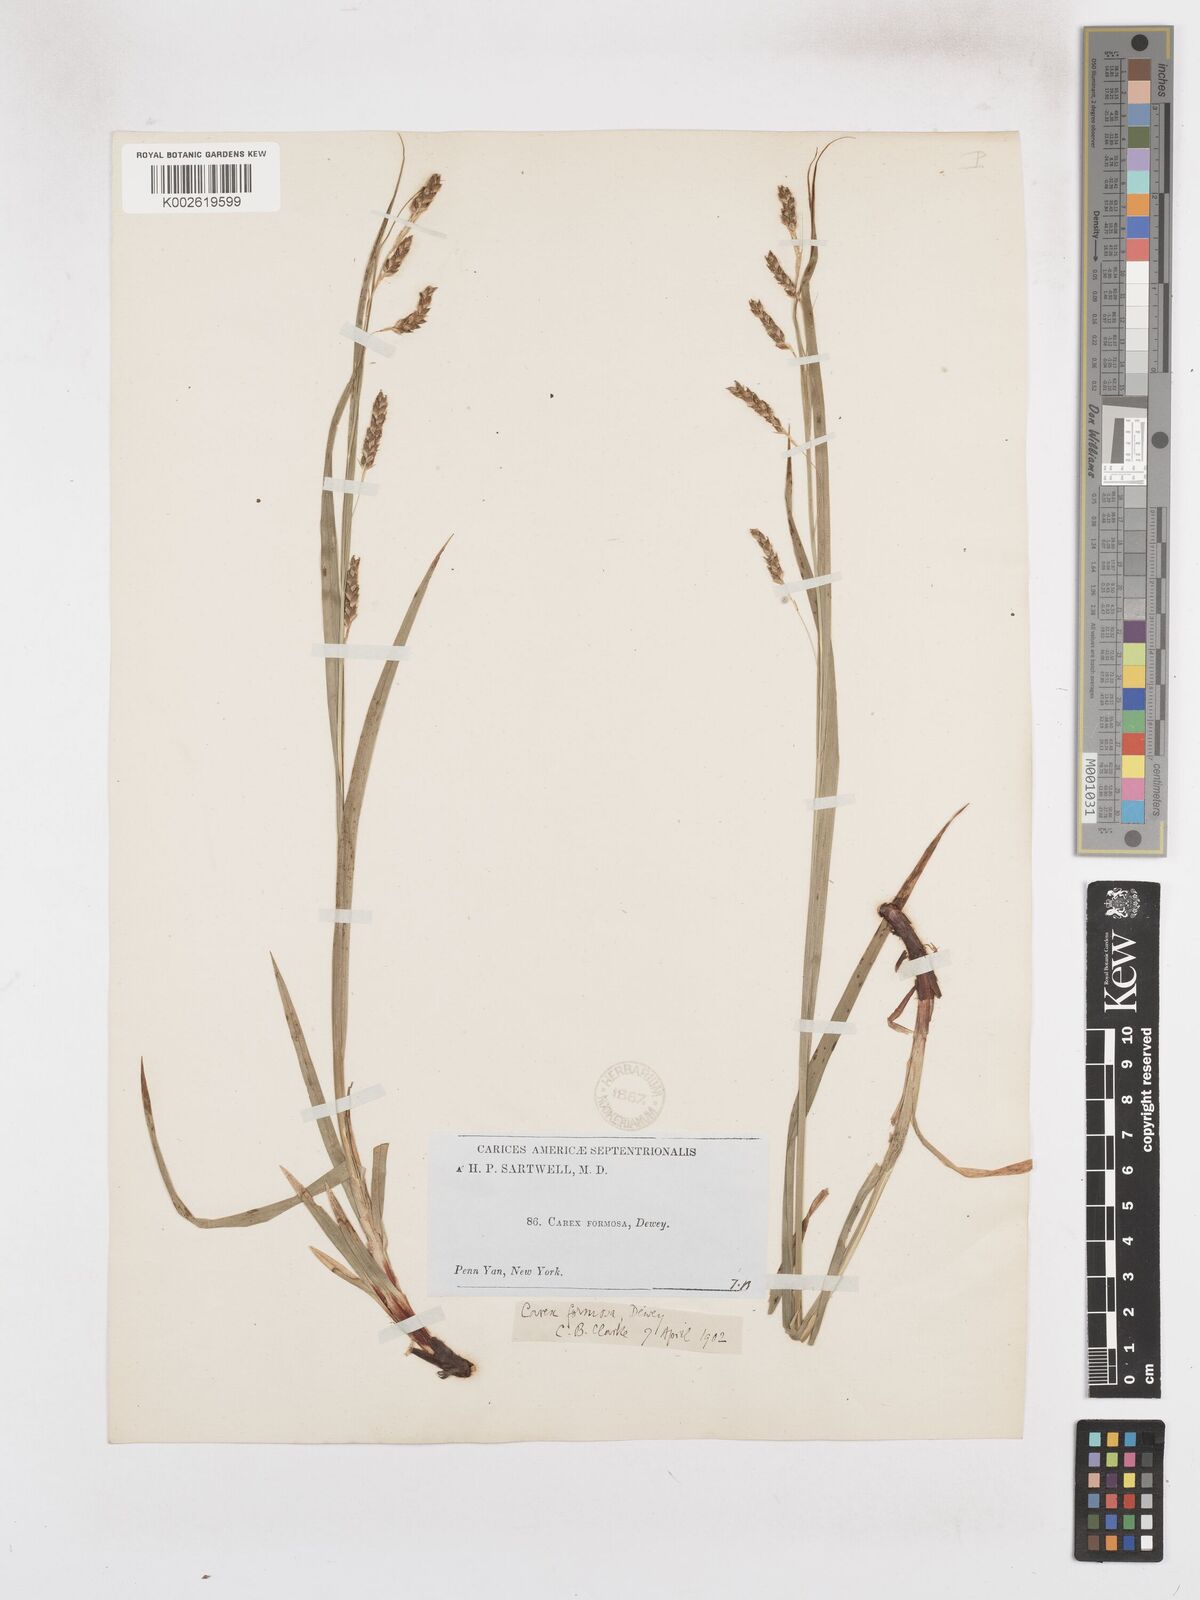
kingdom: Plantae
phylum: Tracheophyta
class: Liliopsida
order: Poales
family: Cyperaceae
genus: Carex
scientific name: Carex formosa
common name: Awnless graceful sedge
